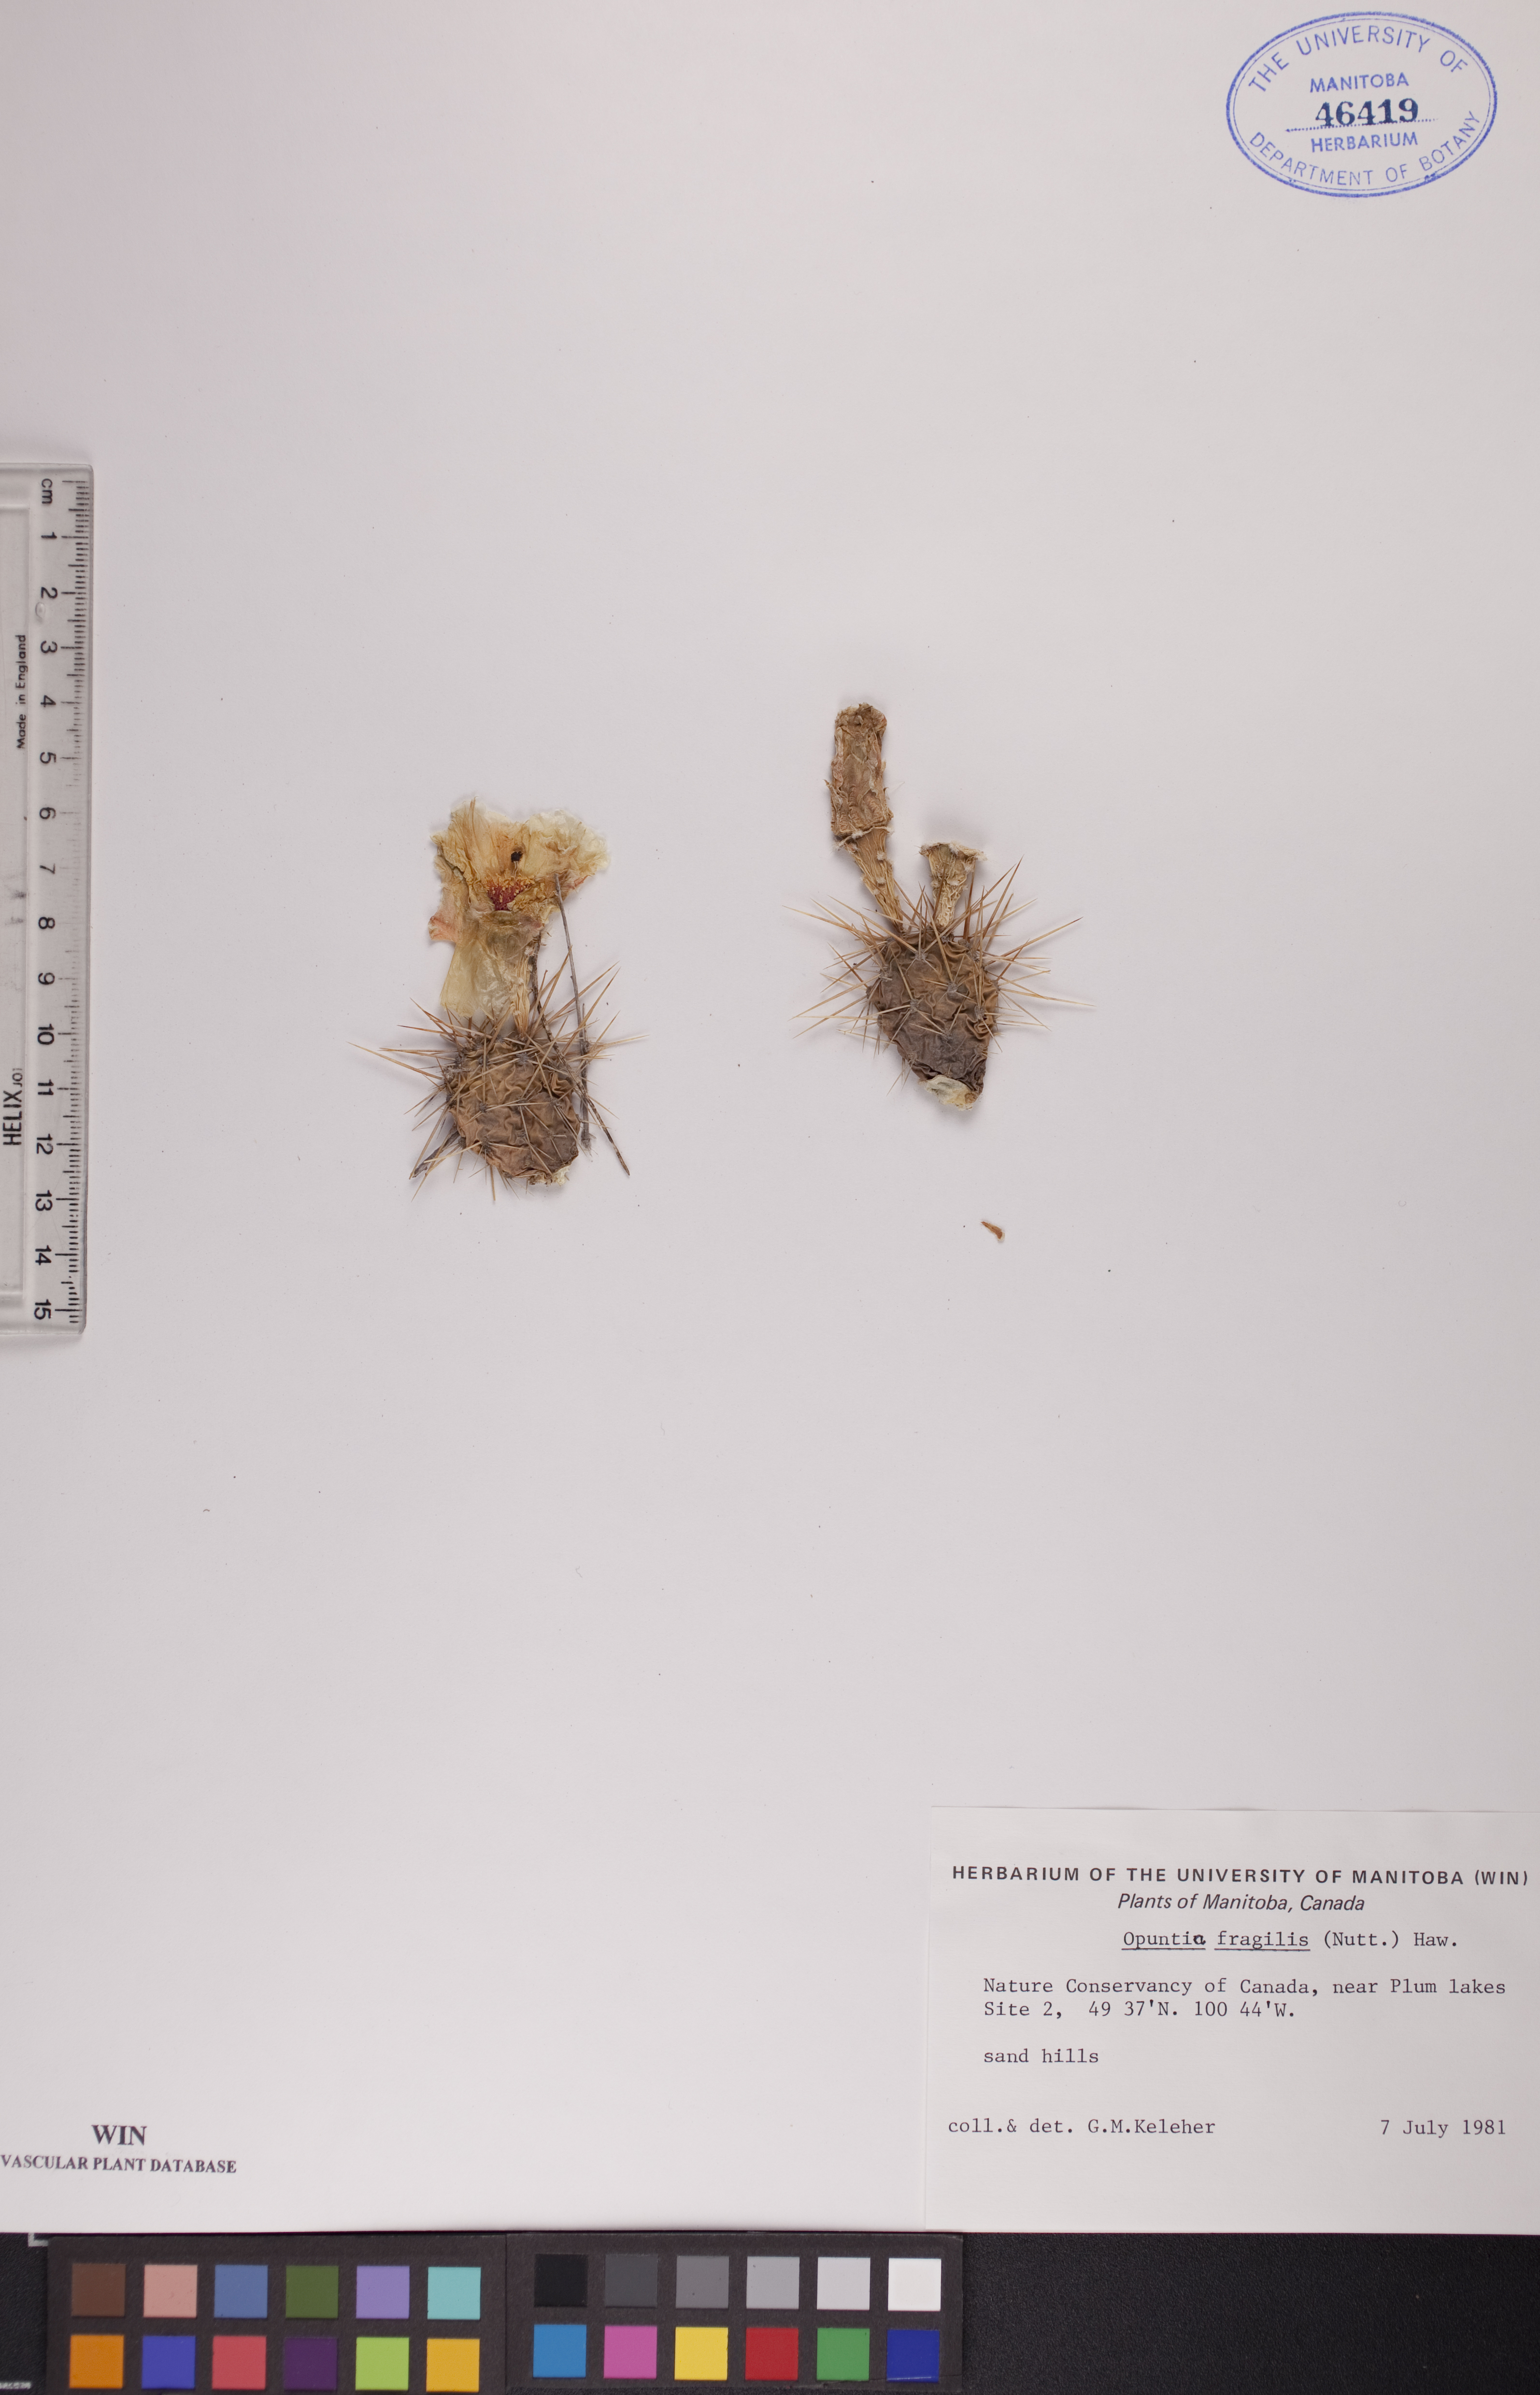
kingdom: Plantae
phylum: Tracheophyta
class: Magnoliopsida
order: Caryophyllales
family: Cactaceae
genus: Opuntia
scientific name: Opuntia fragilis
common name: Brittle cactus
